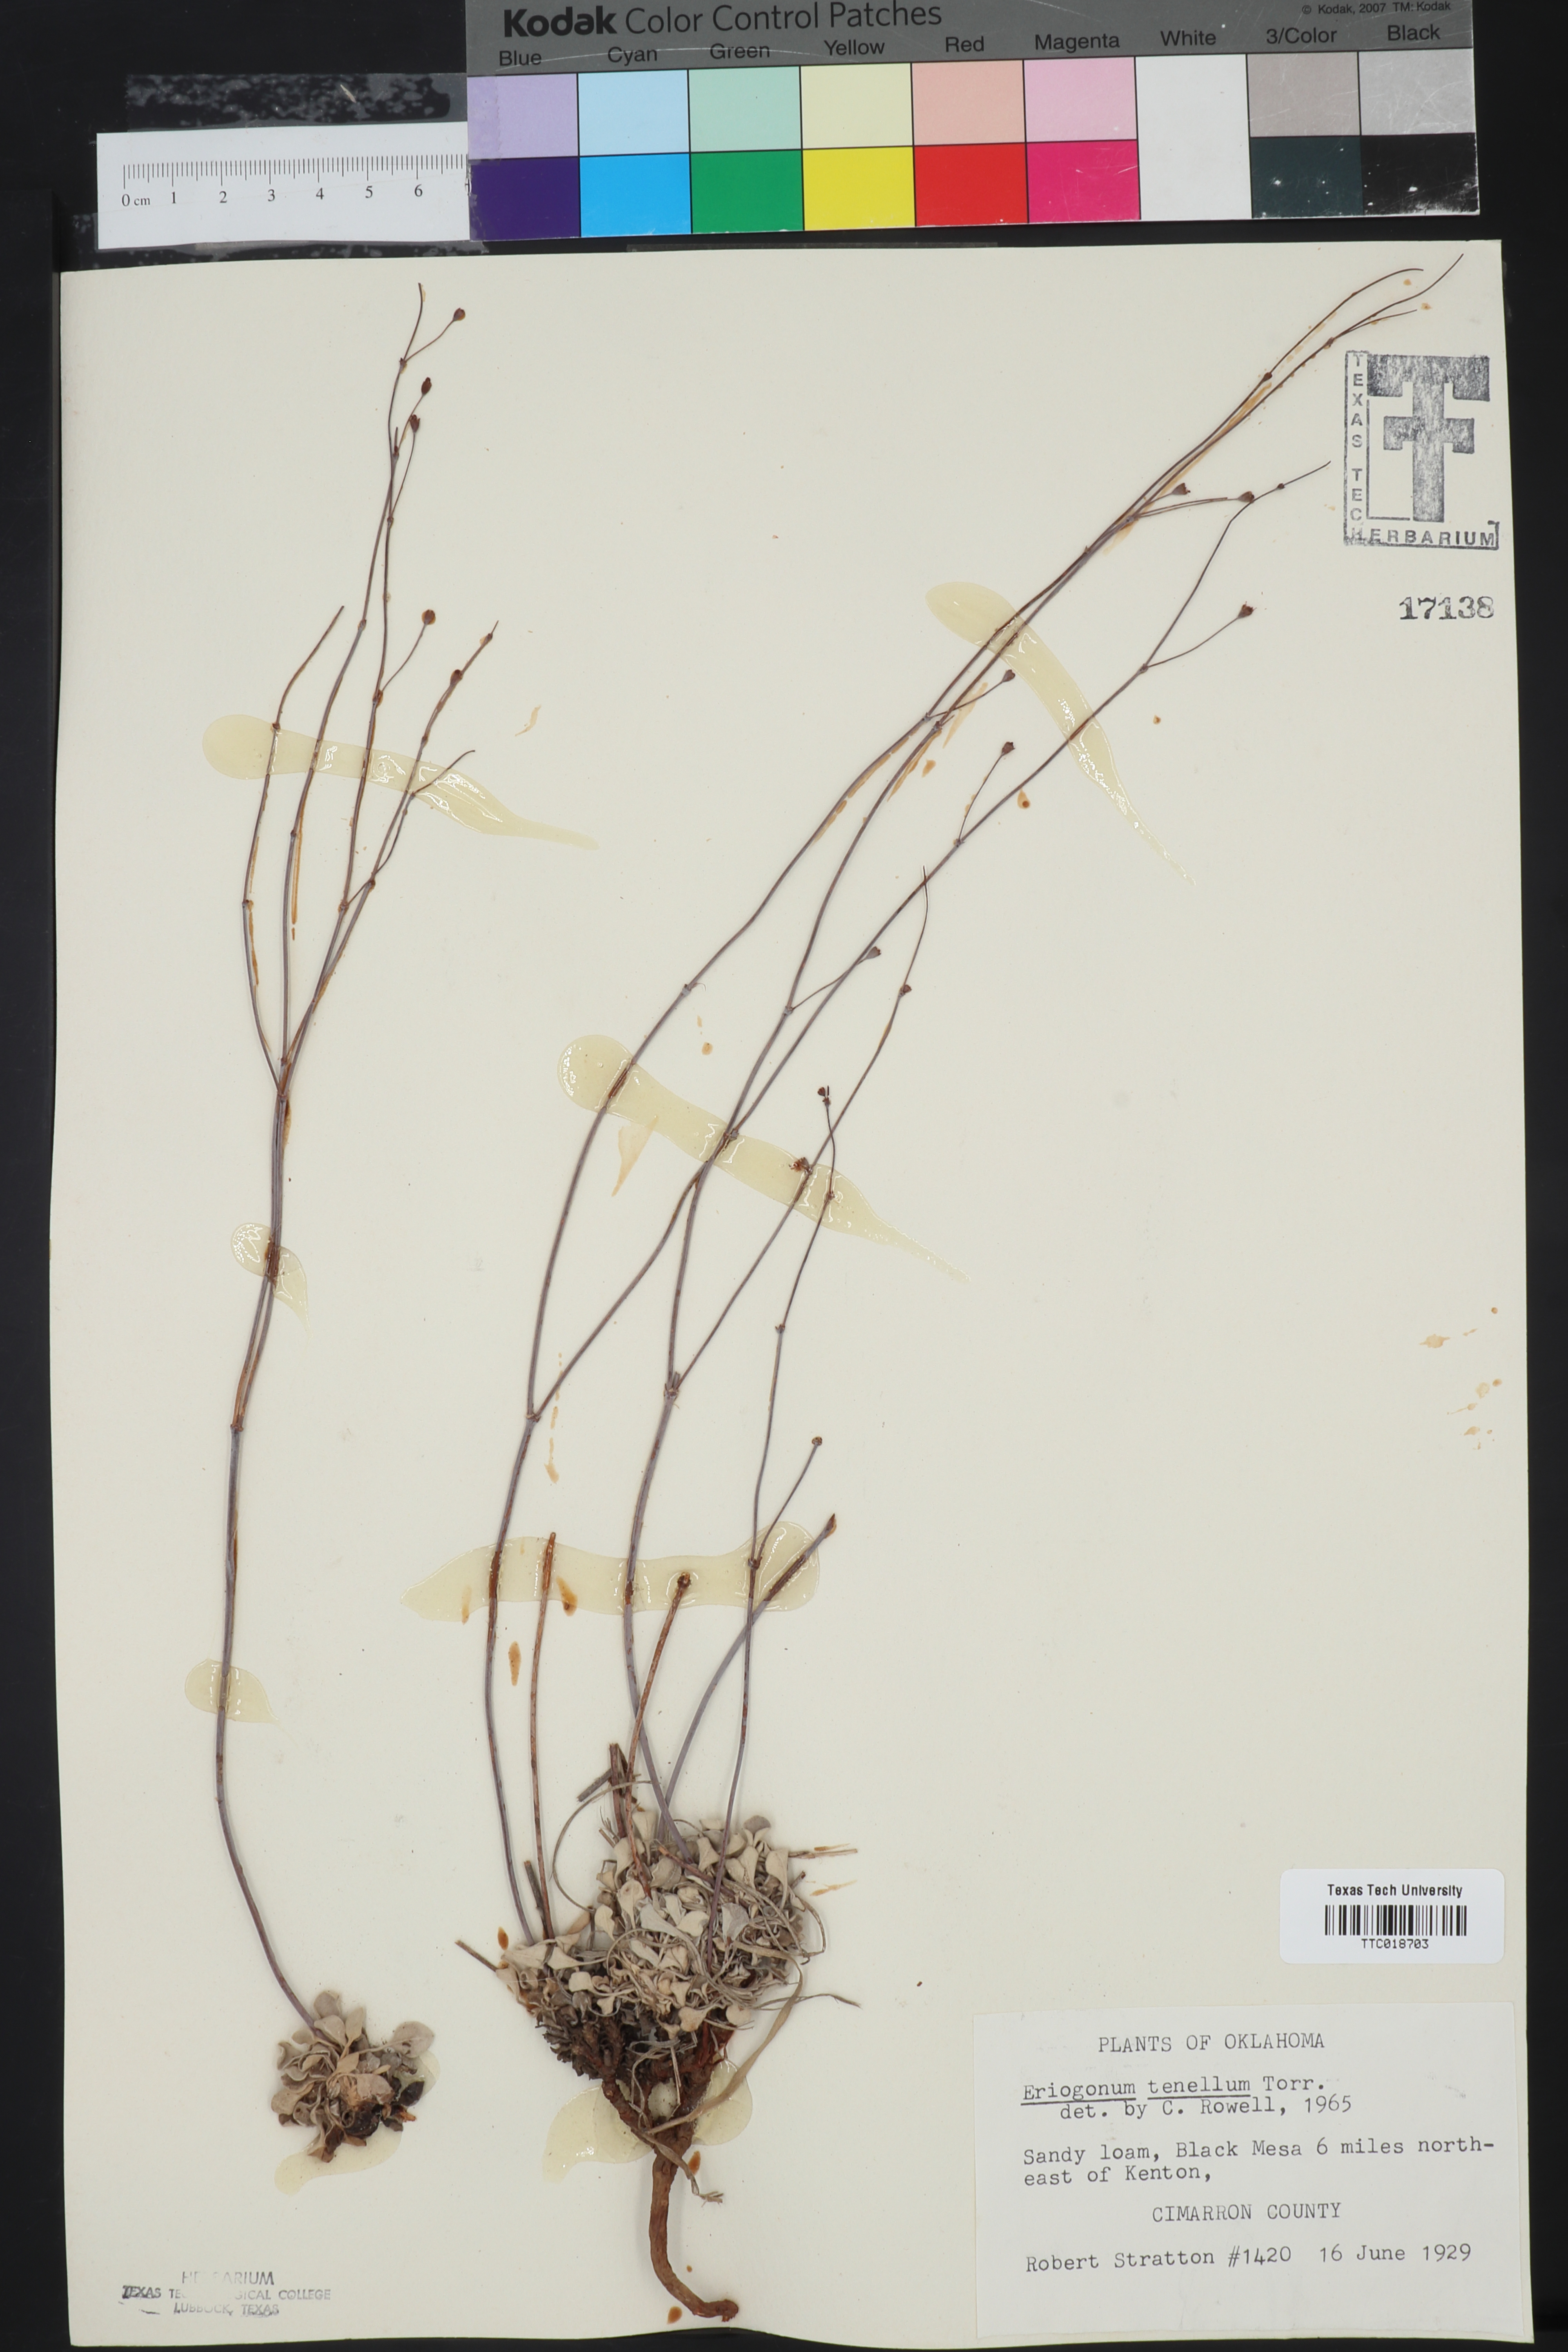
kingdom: Plantae
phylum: Tracheophyta
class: Magnoliopsida
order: Caryophyllales
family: Polygonaceae
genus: Eriogonum
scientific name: Eriogonum tenellum
